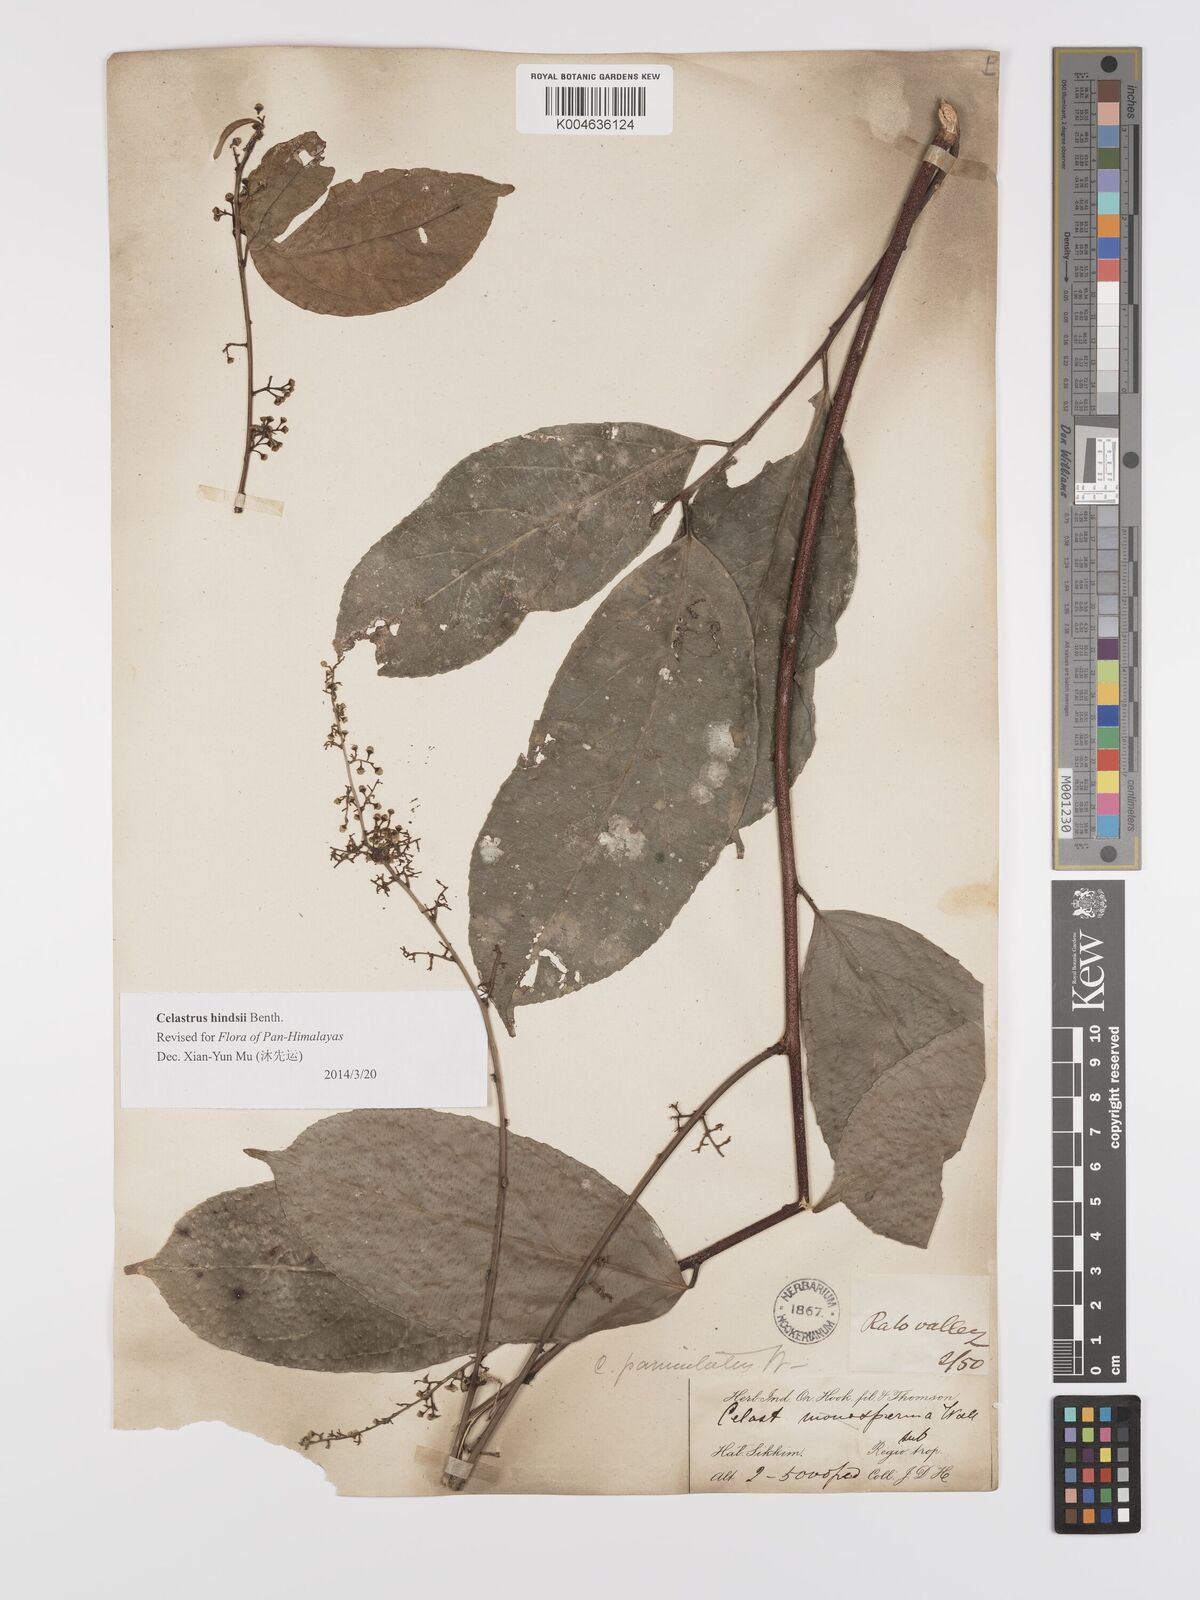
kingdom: Plantae
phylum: Tracheophyta
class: Magnoliopsida
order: Celastrales
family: Celastraceae
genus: Celastrus
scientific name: Celastrus paniculatus
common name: Oriental bittersweet; staff vine
